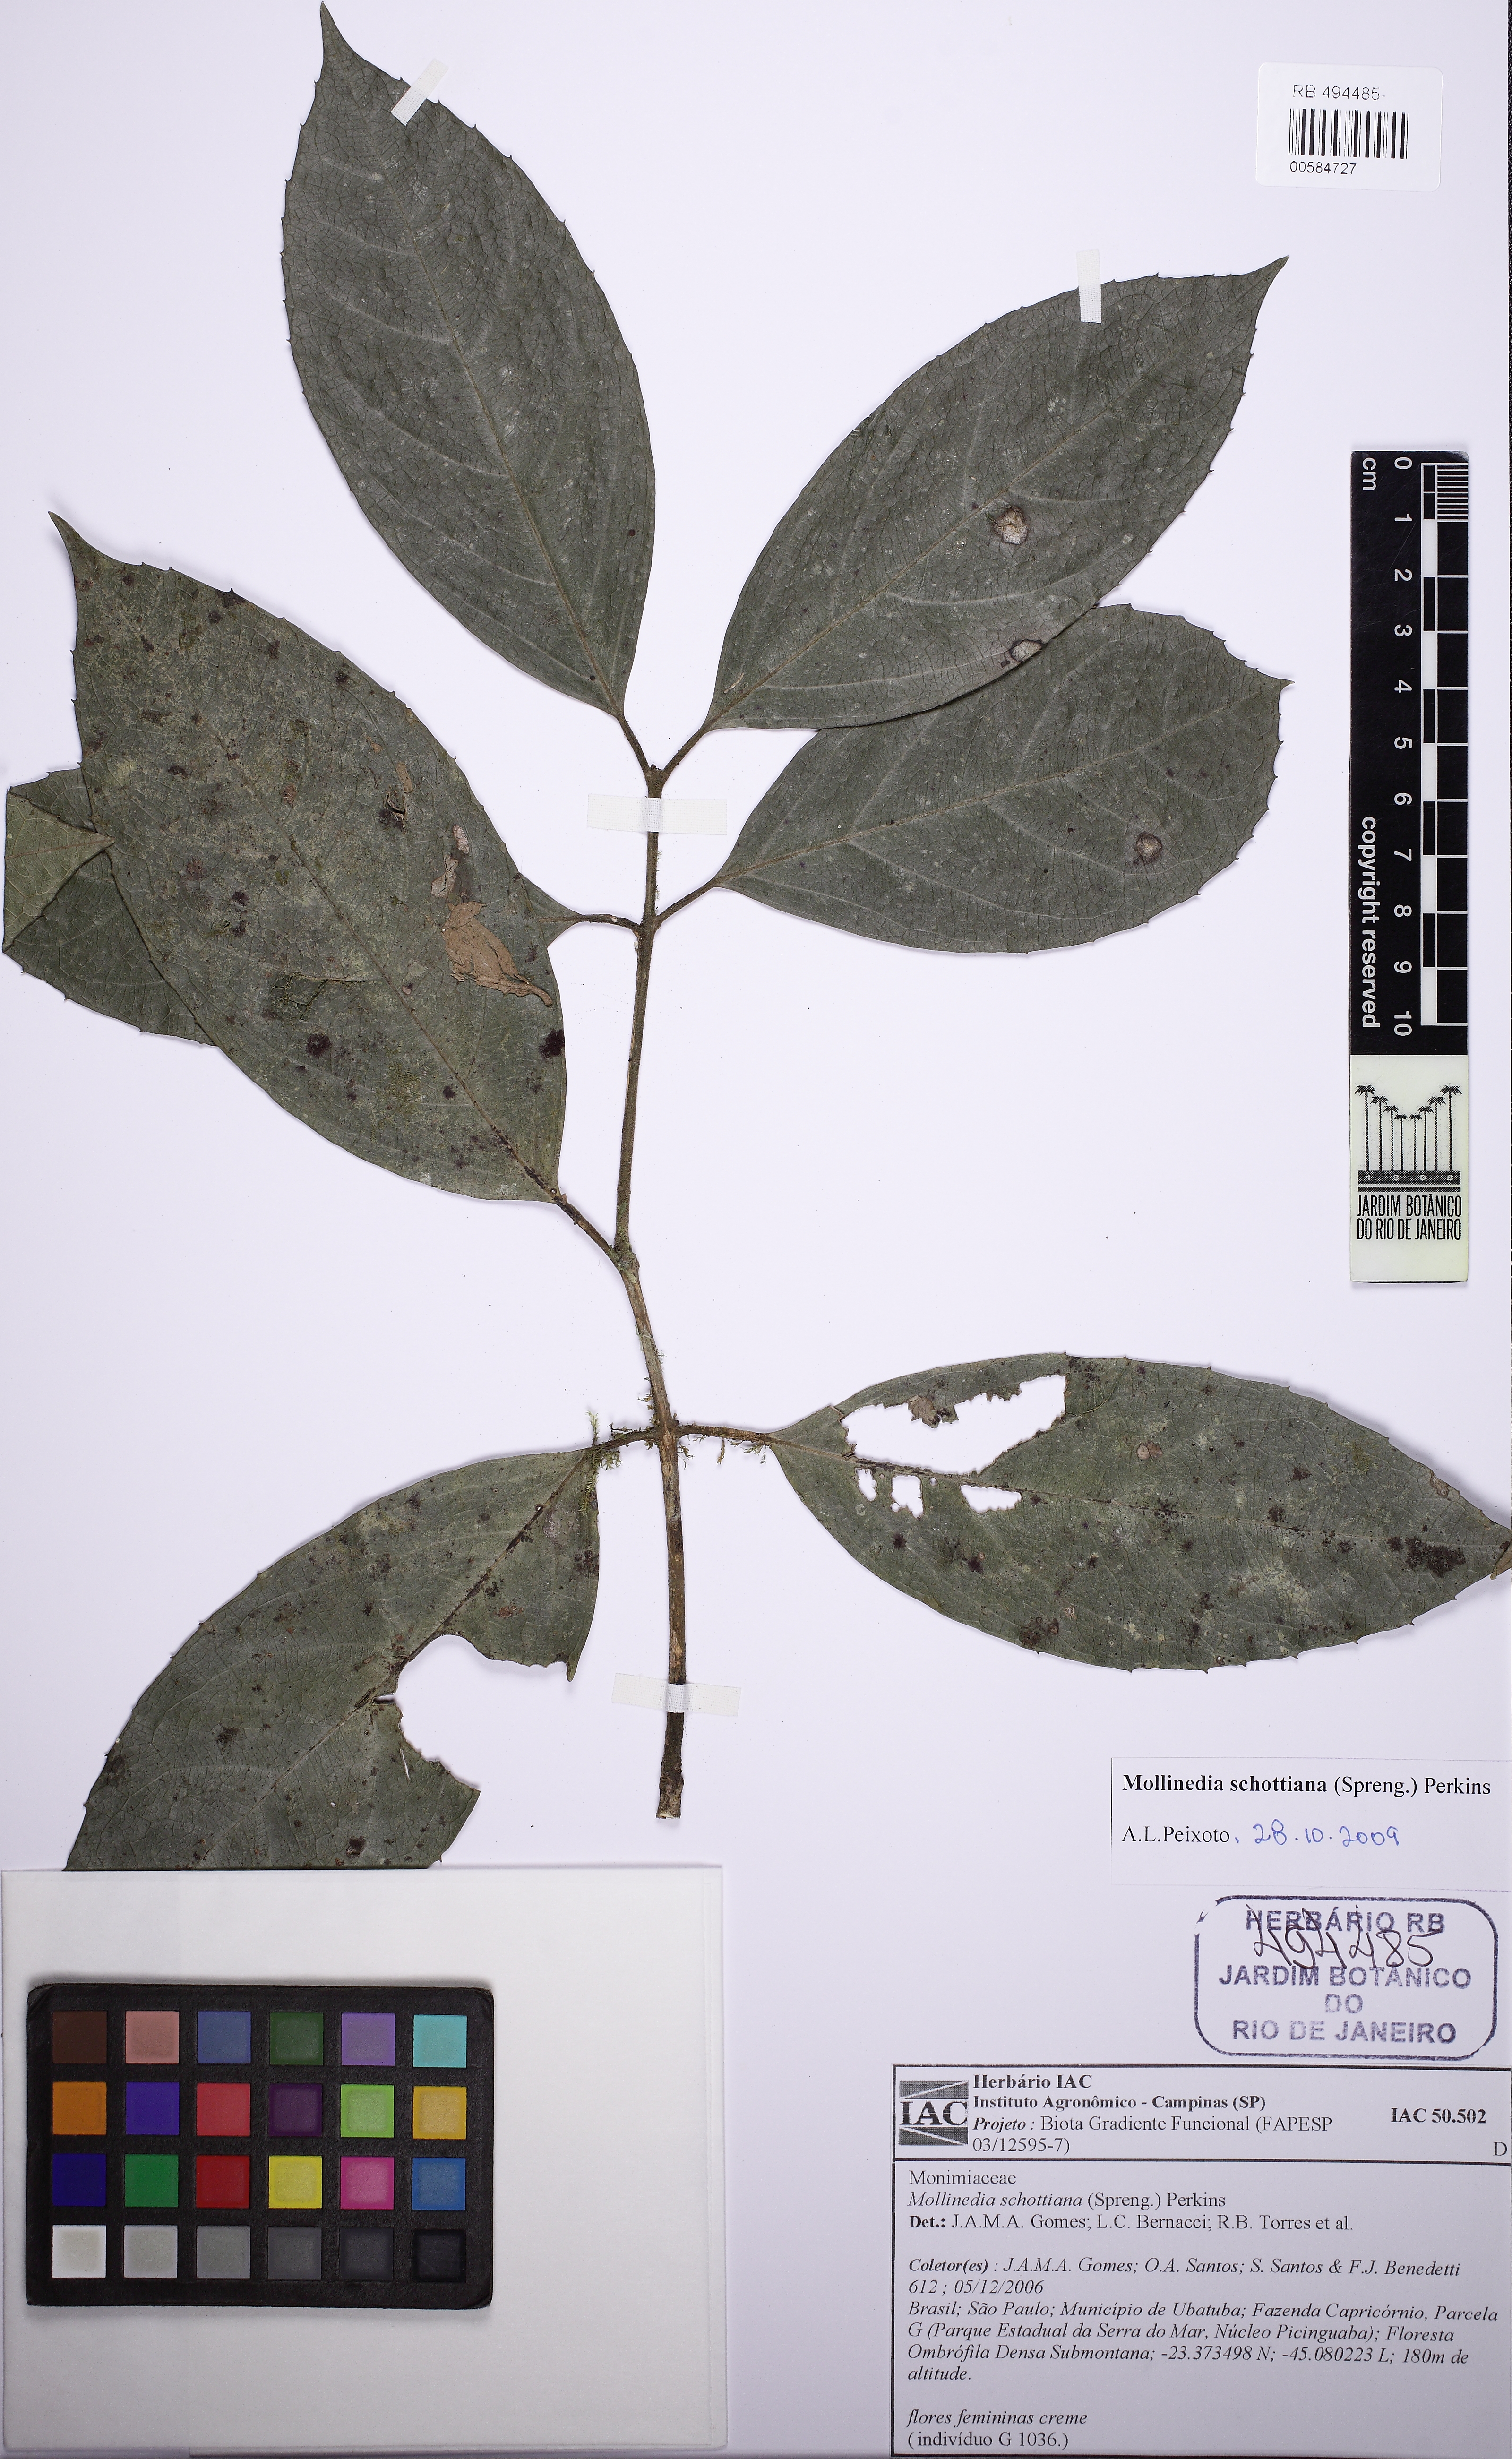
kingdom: Plantae
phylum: Tracheophyta
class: Magnoliopsida
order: Laurales
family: Monimiaceae
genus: Mollinedia
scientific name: Mollinedia umbellata
